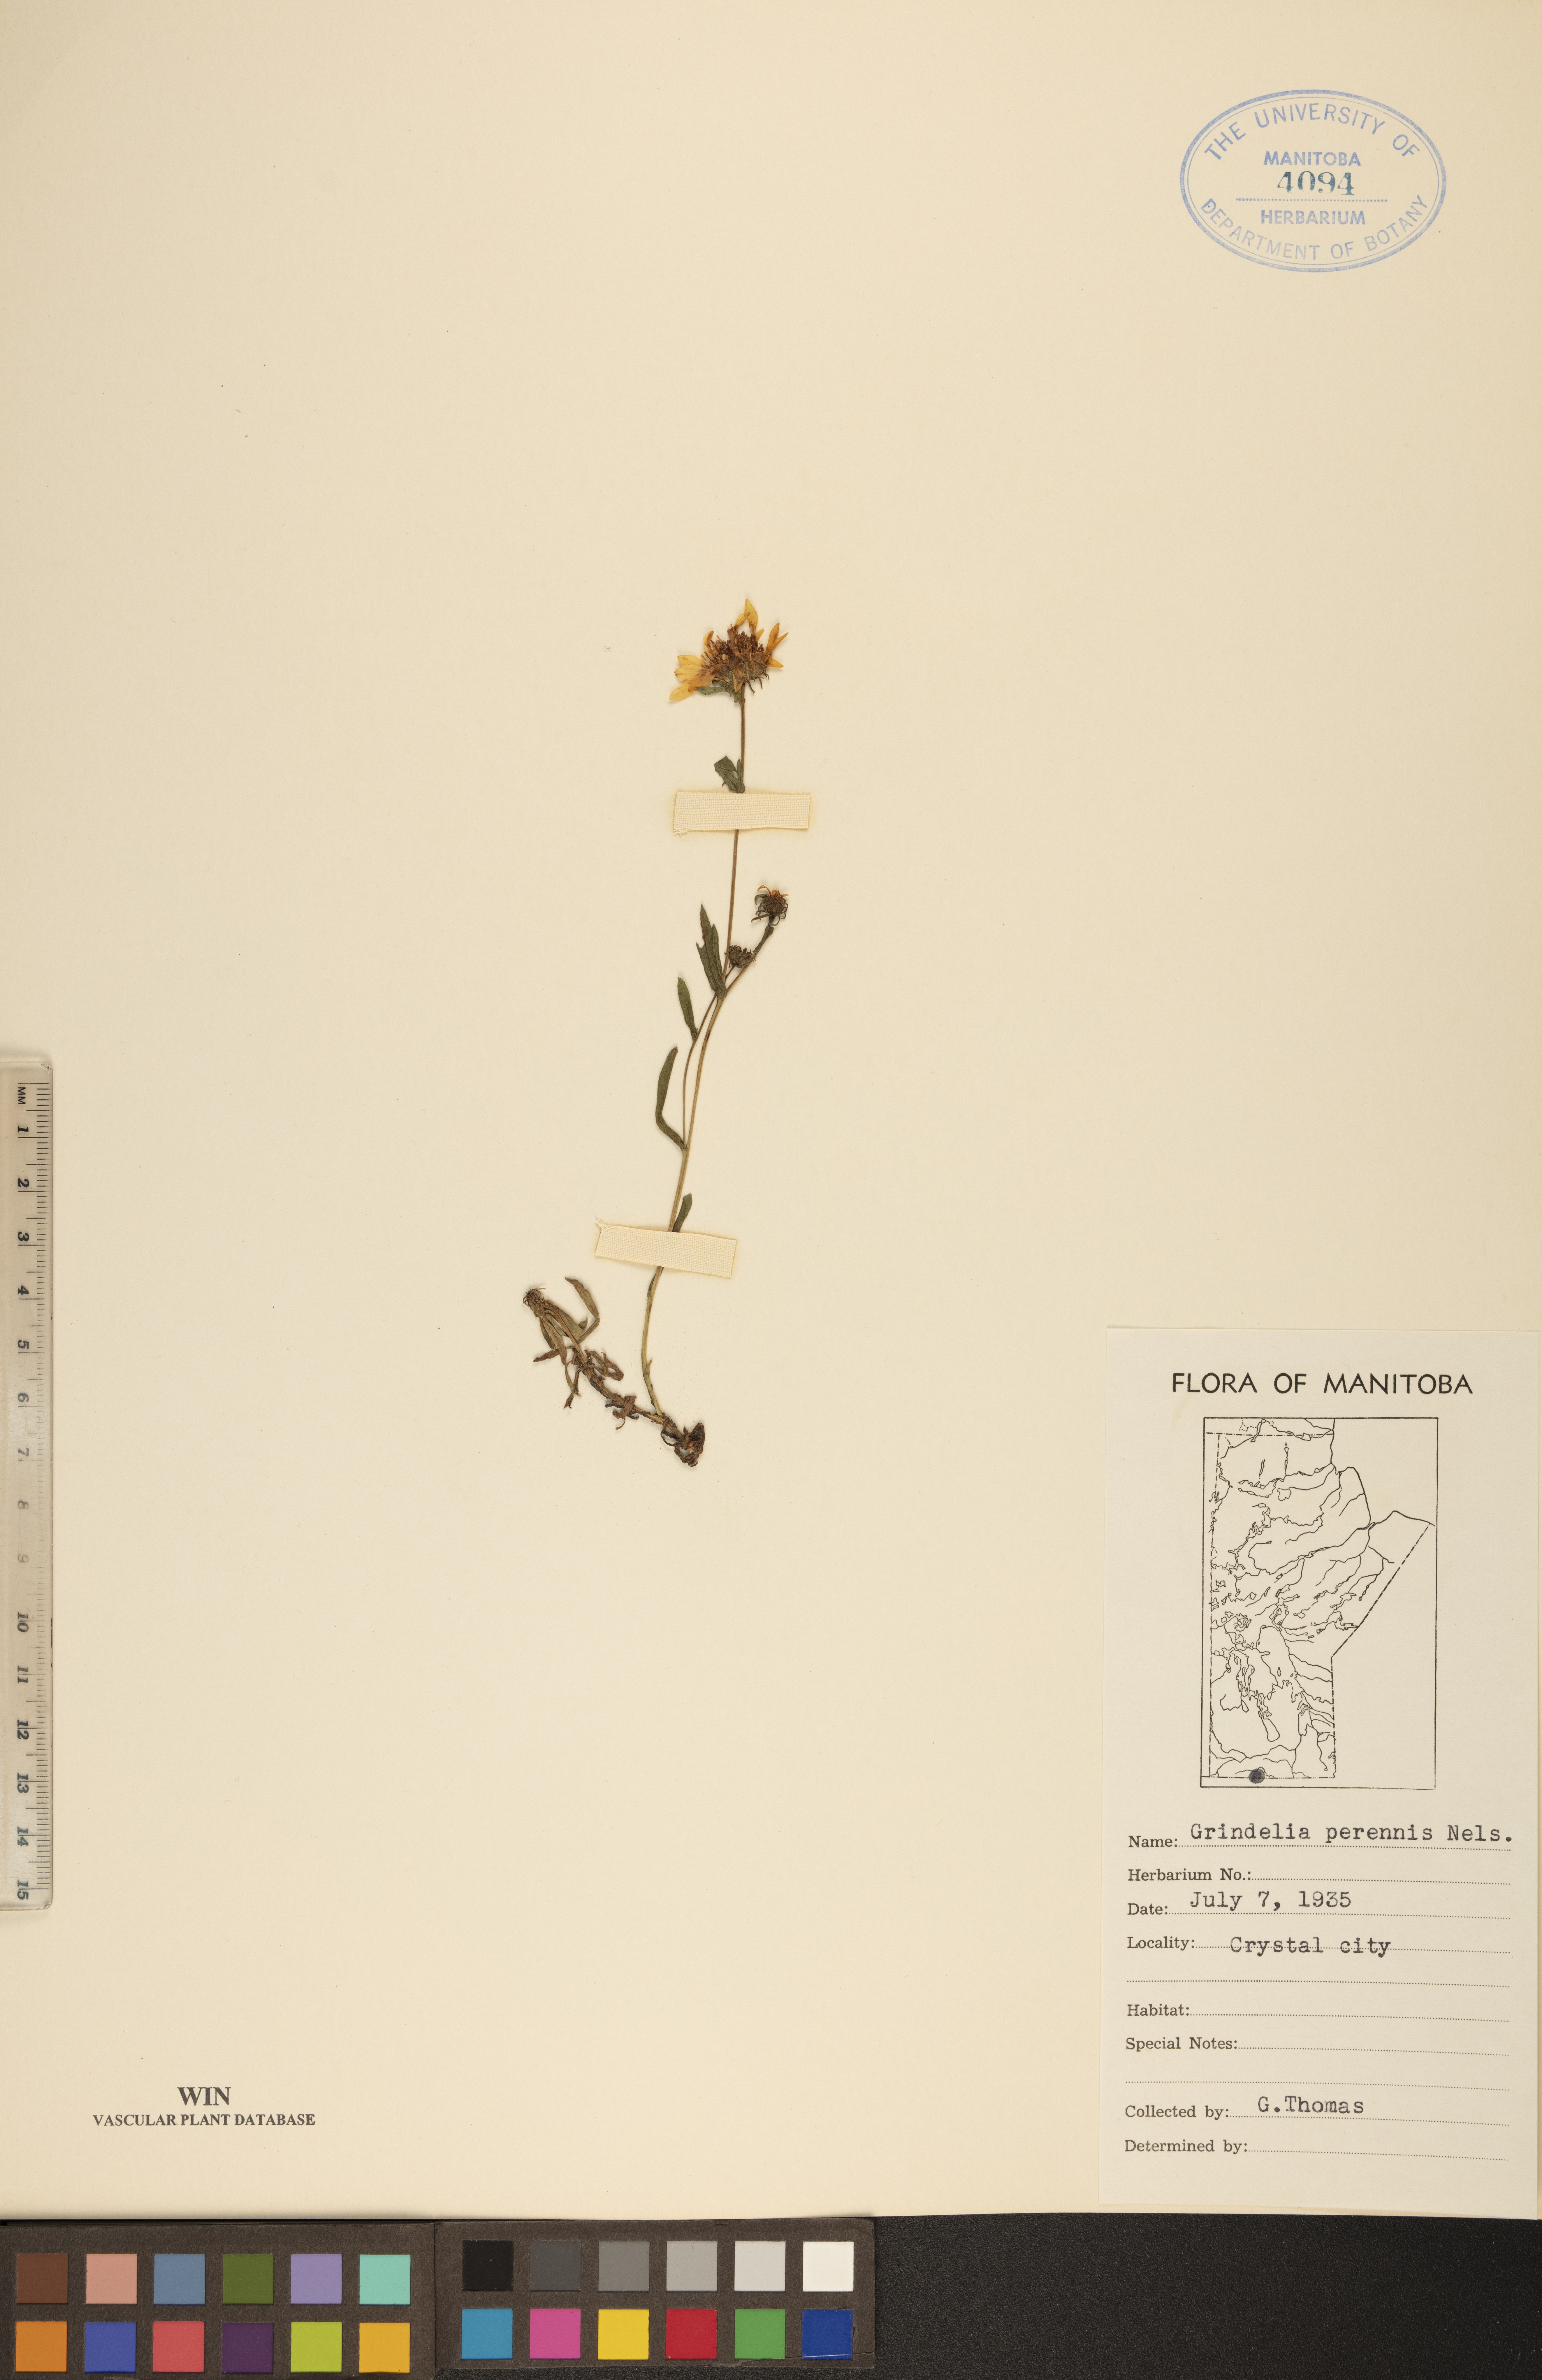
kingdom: Plantae
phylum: Tracheophyta
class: Magnoliopsida
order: Asterales
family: Asteraceae
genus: Grindelia
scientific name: Grindelia hirsutula
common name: Hairy gumweed
